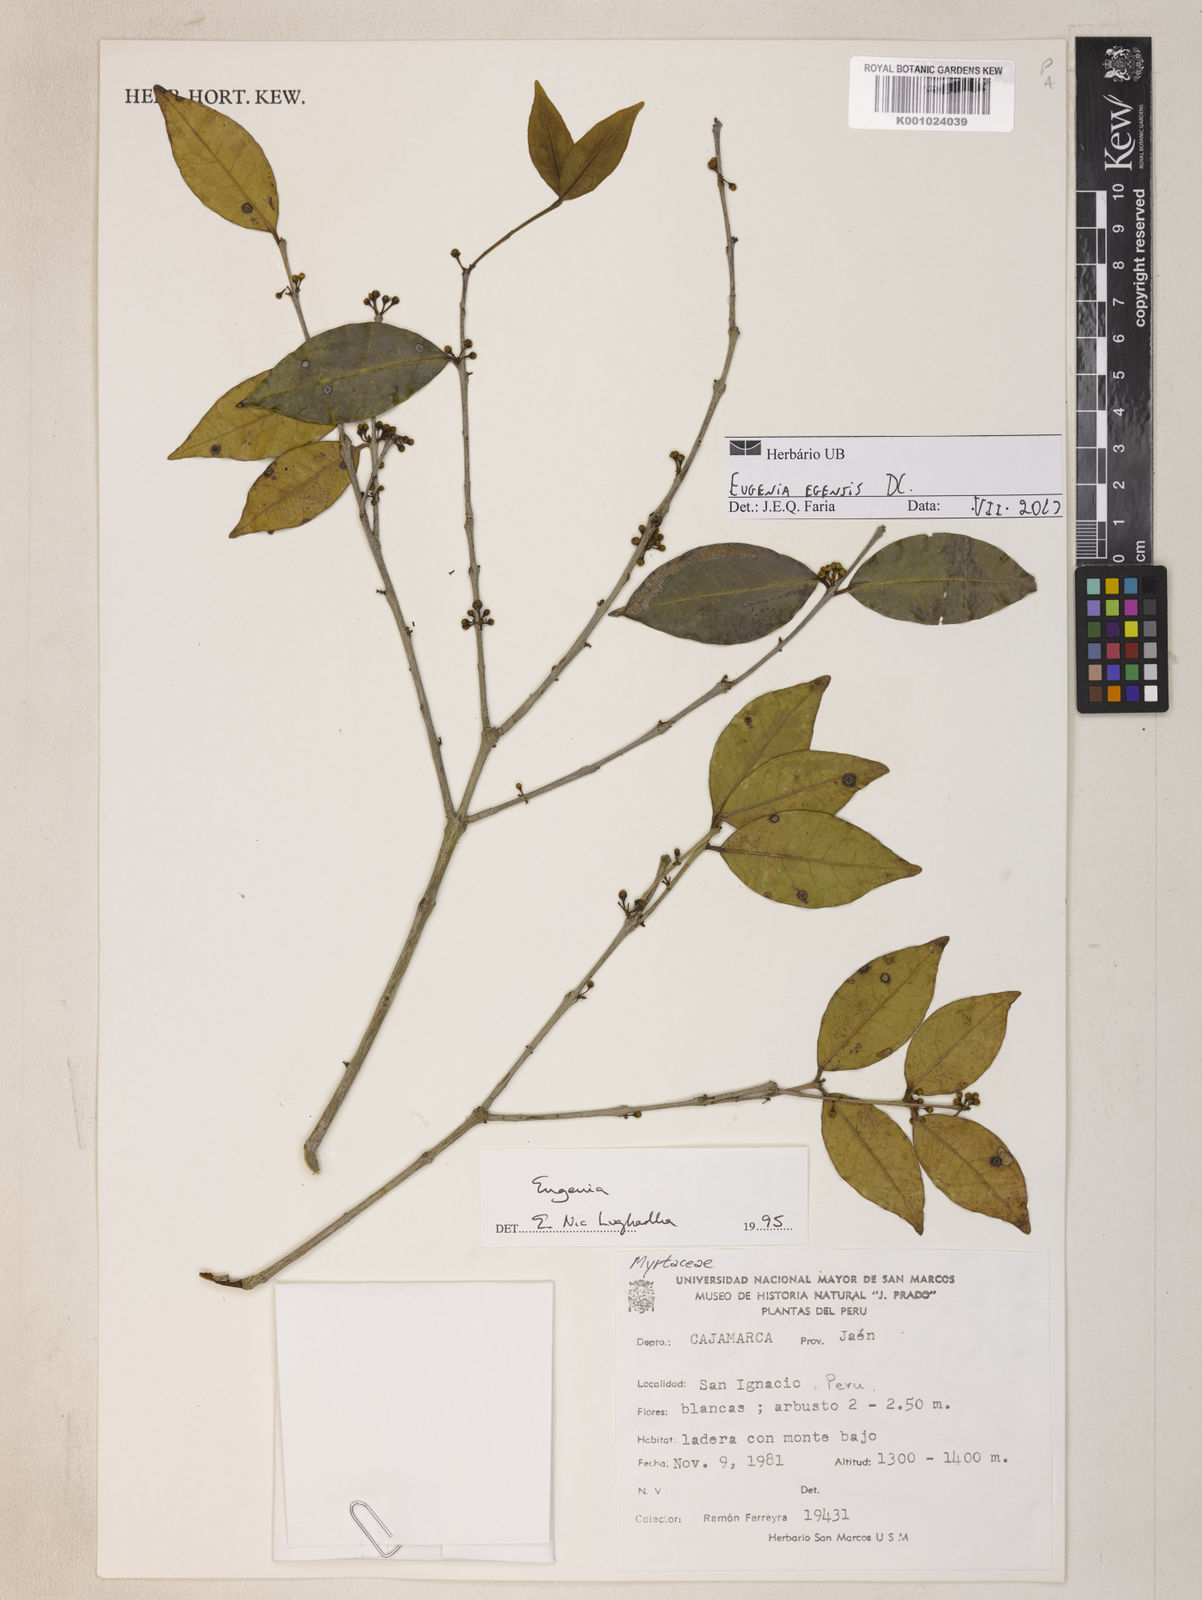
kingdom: Plantae
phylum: Tracheophyta
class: Magnoliopsida
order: Myrtales
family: Myrtaceae
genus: Eugenia
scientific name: Eugenia egensis
